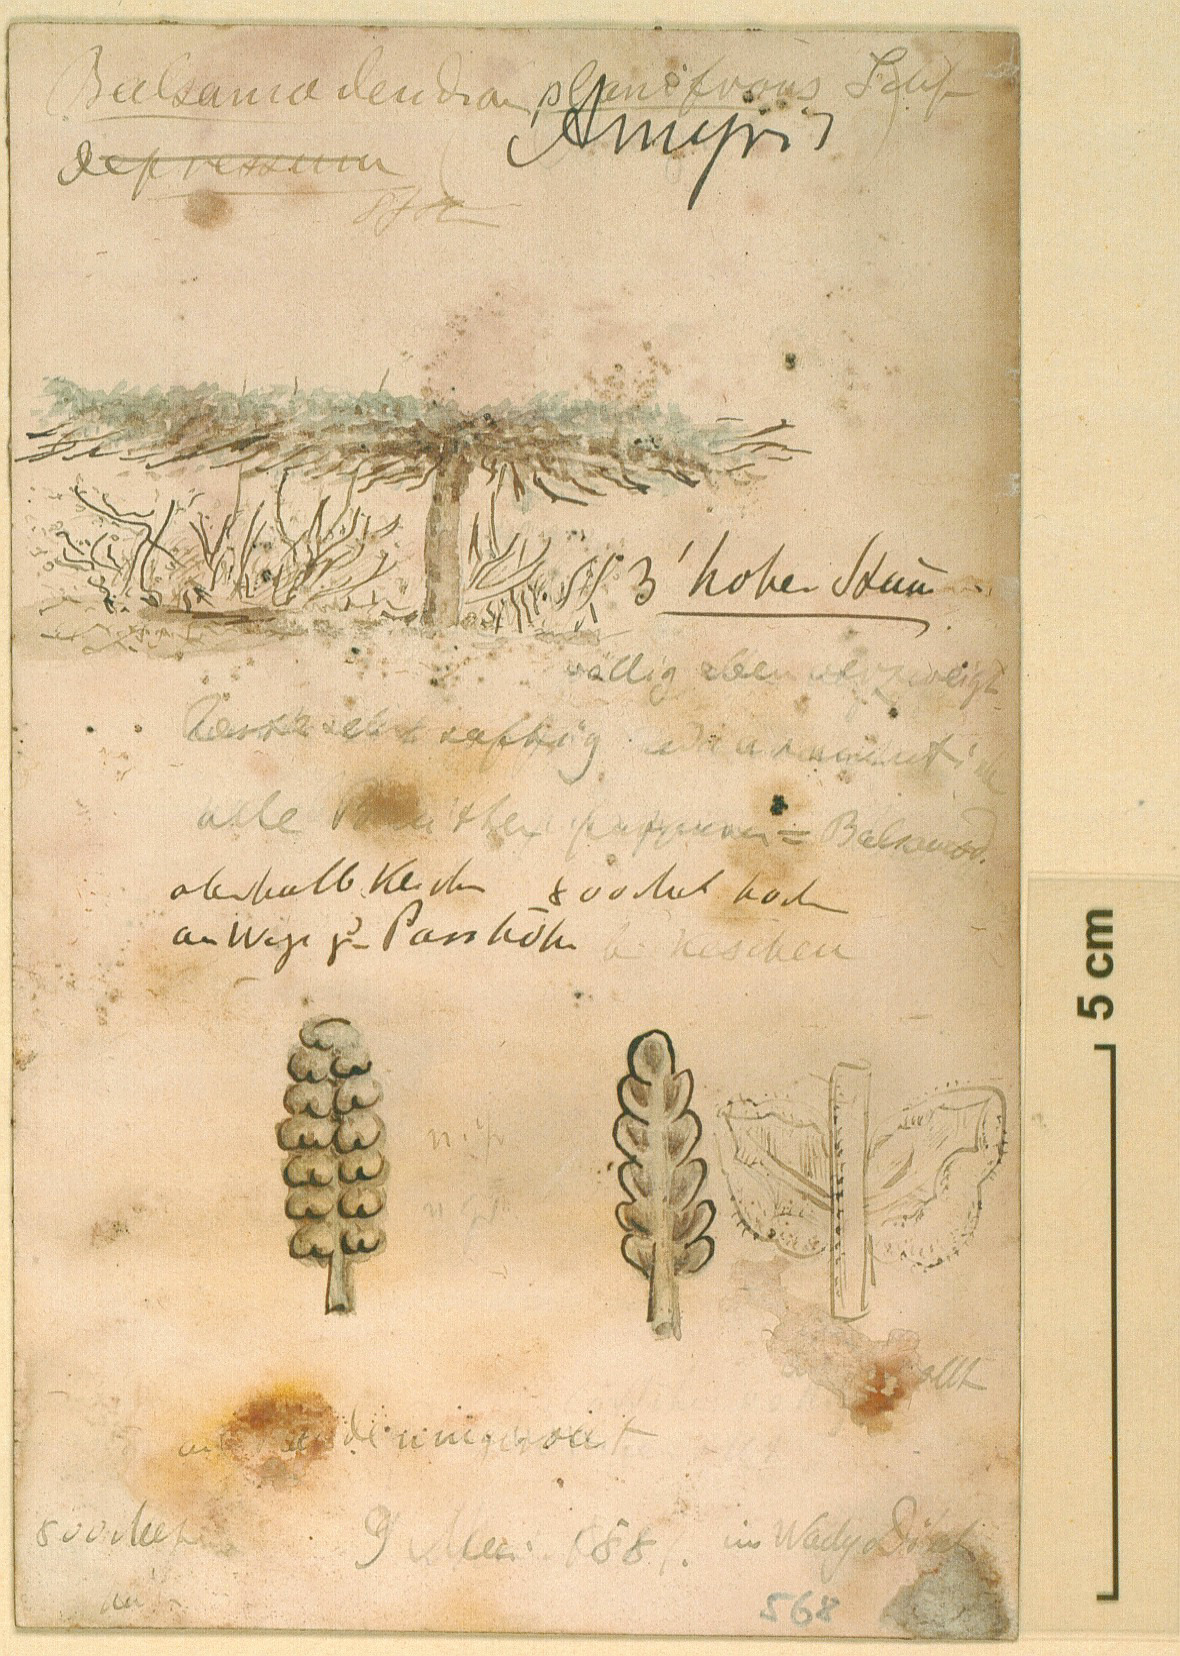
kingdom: Plantae
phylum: Tracheophyta
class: Magnoliopsida
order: Sapindales
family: Burseraceae
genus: Commiphora
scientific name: Commiphora planifrons
